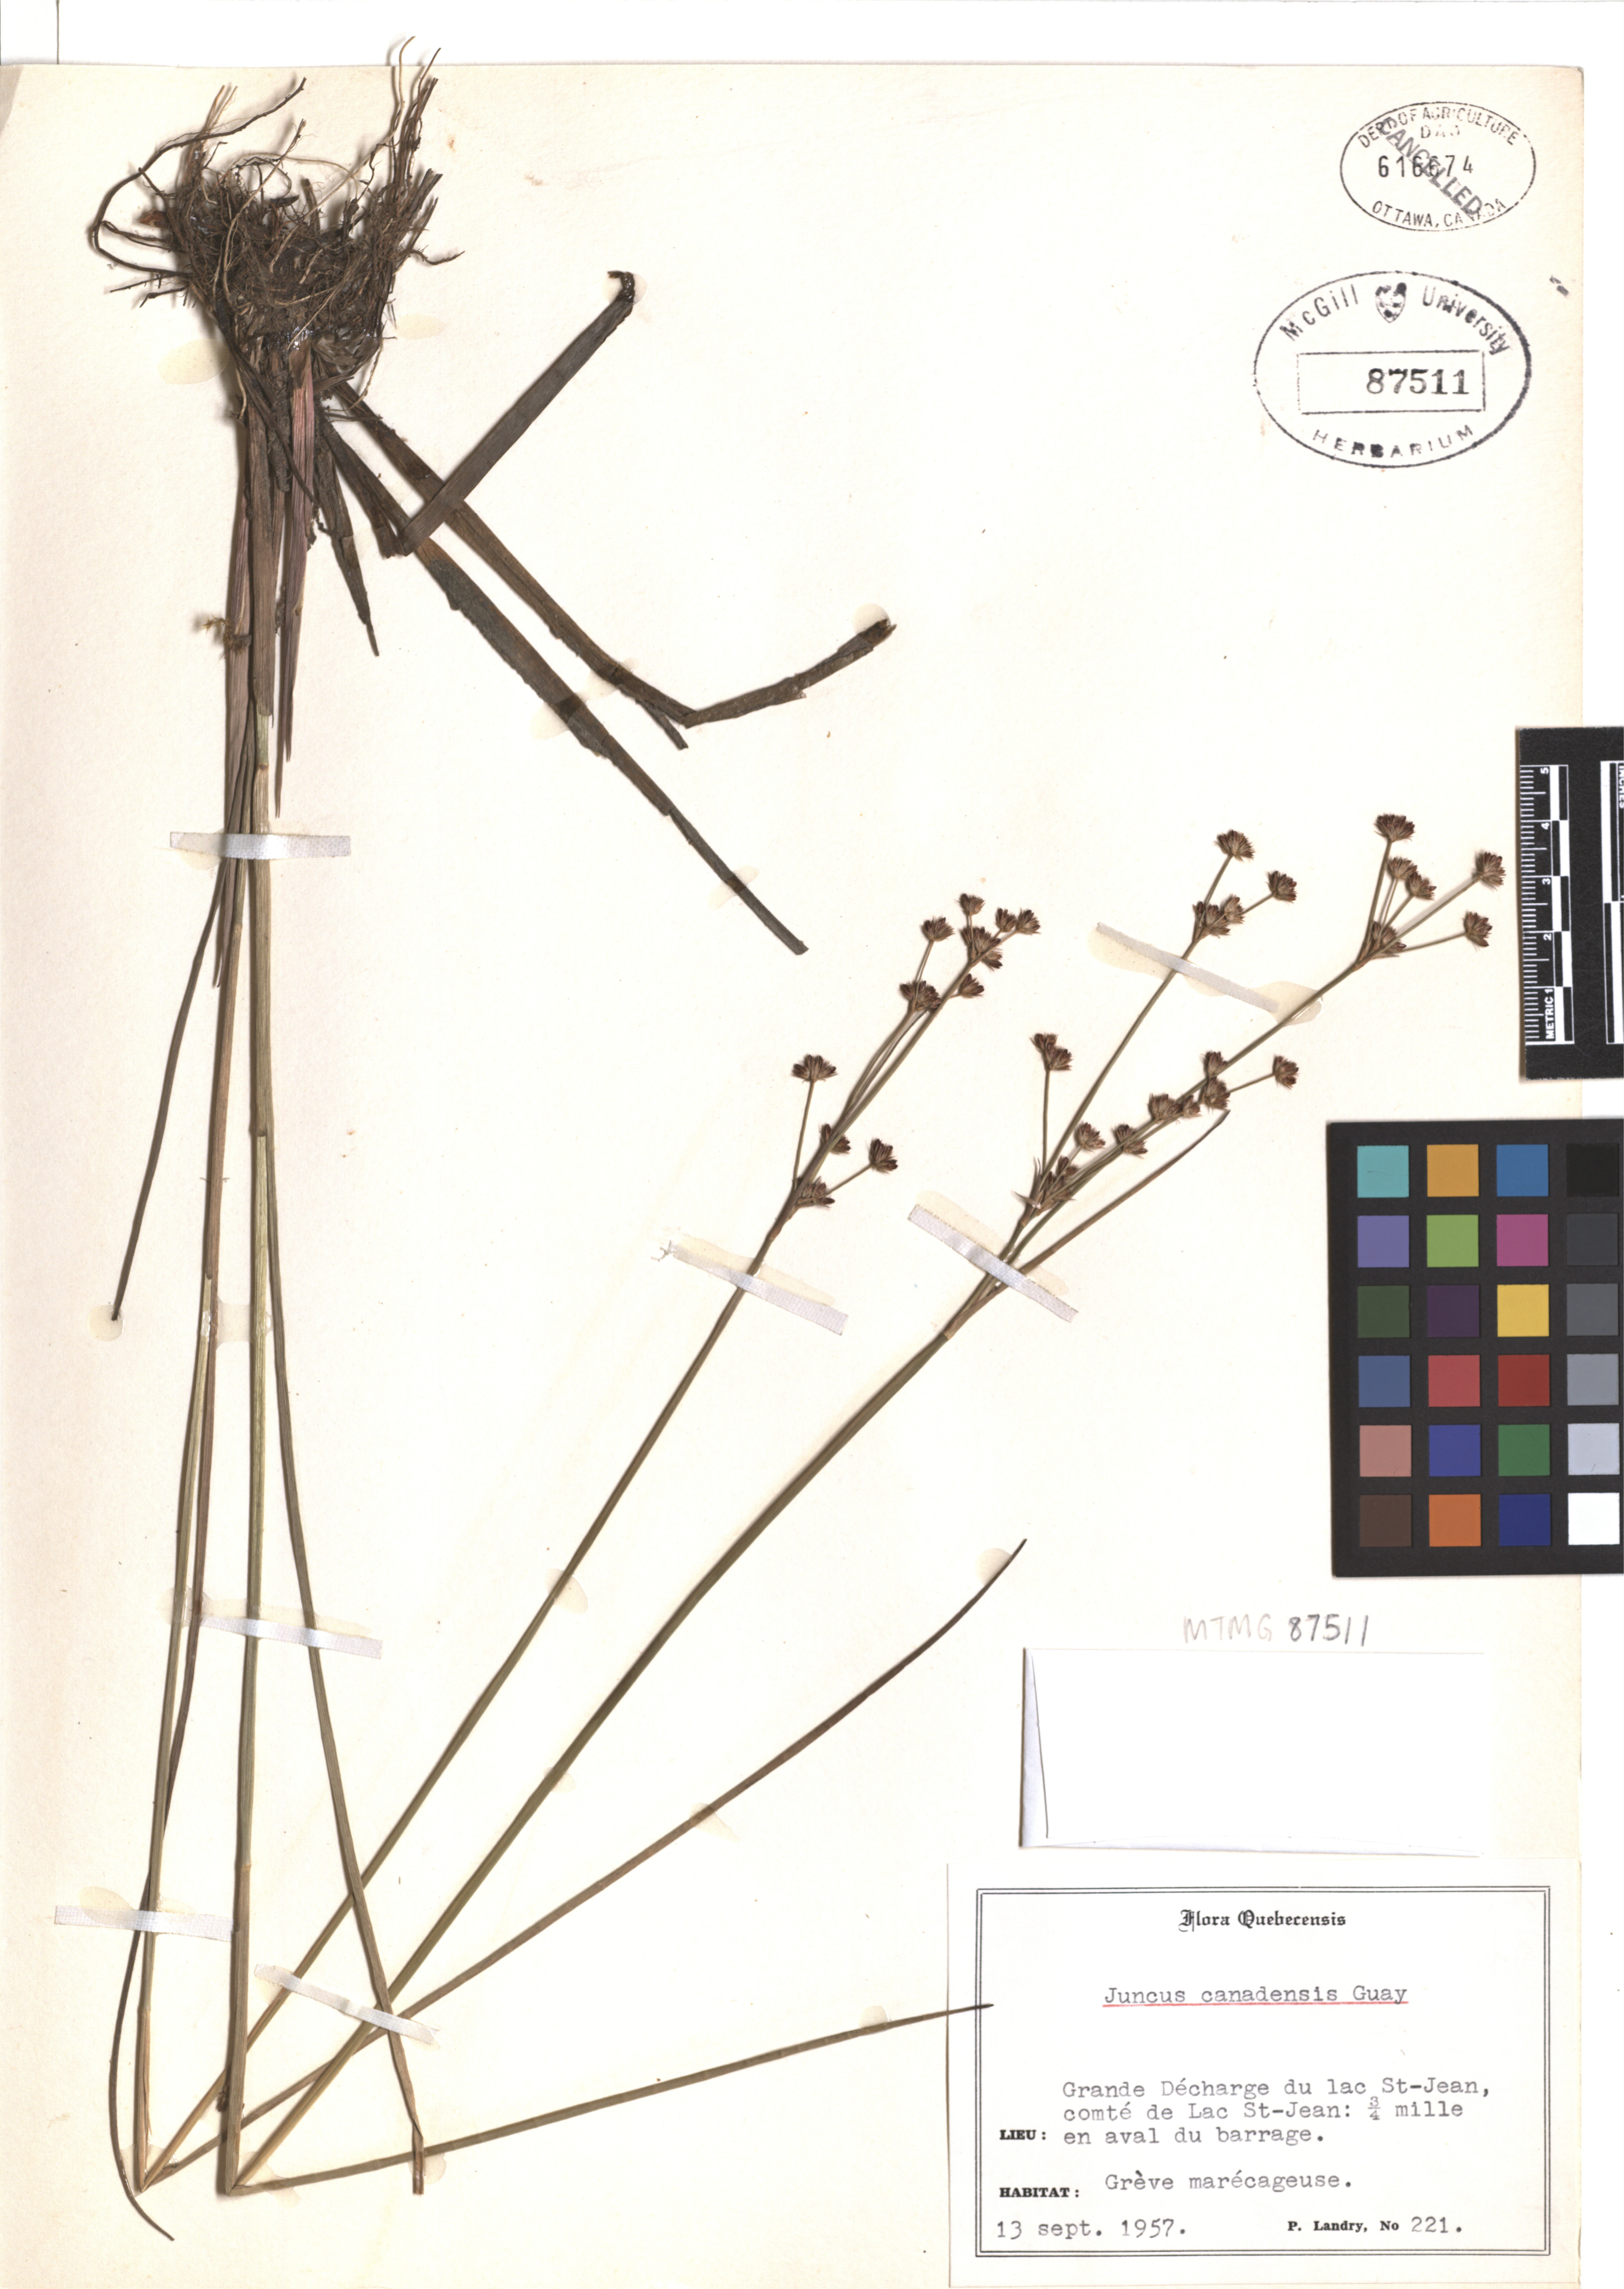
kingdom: Plantae
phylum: Tracheophyta
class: Liliopsida
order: Poales
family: Juncaceae
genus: Juncus
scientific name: Juncus canadensis
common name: Canada rush
